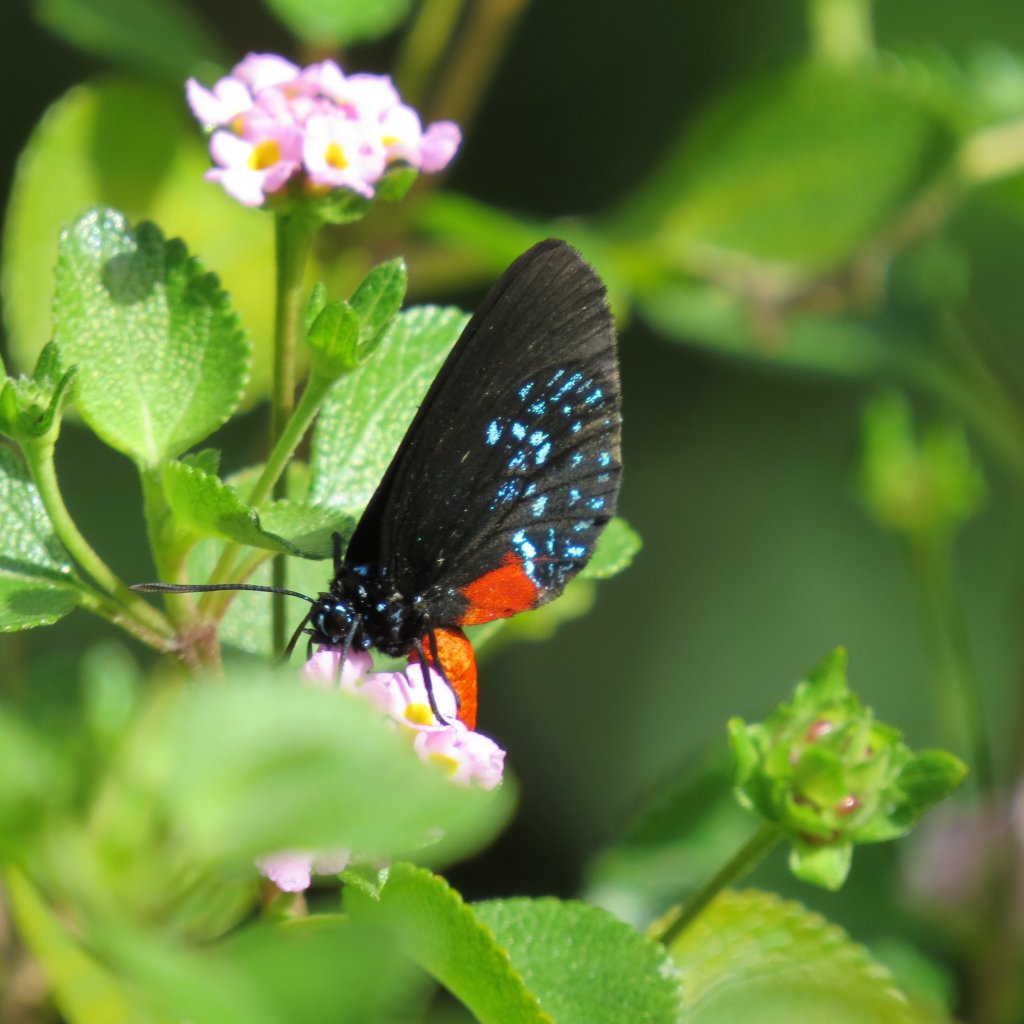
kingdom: Animalia
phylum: Arthropoda
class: Insecta
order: Lepidoptera
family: Lycaenidae
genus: Eumaeus
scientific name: Eumaeus atala
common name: Atala
